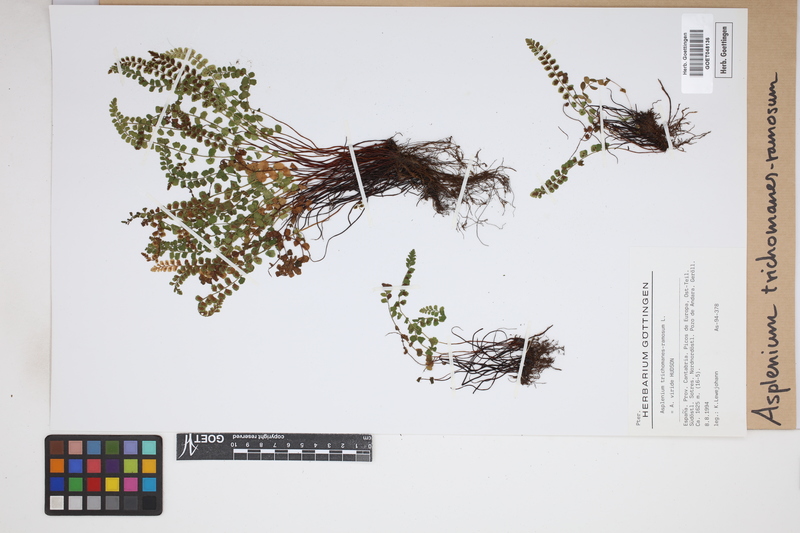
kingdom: Plantae
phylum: Tracheophyta
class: Polypodiopsida
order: Polypodiales
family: Aspleniaceae
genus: Asplenium
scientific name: Asplenium viride
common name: Green spleenwort
